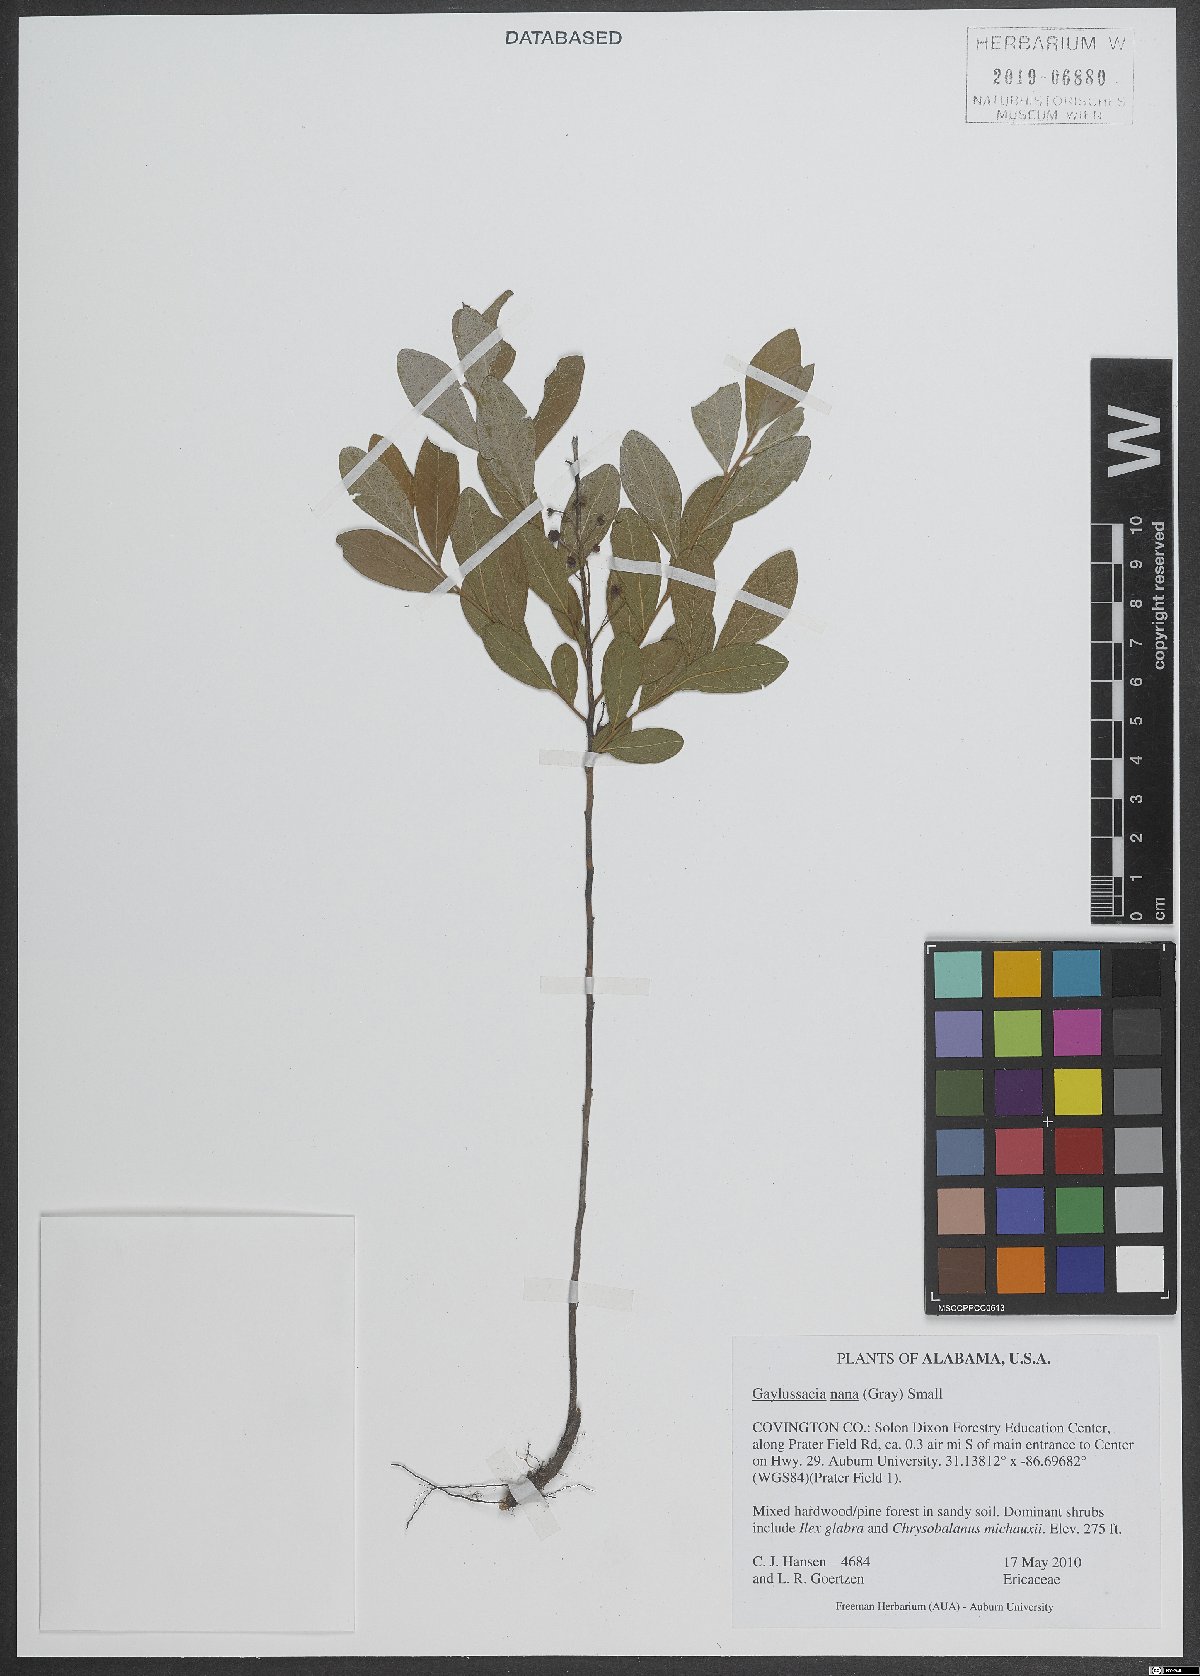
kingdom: Plantae
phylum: Tracheophyta
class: Magnoliopsida
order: Ericales
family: Ericaceae
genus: Gaylussacia
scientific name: Gaylussacia nana
